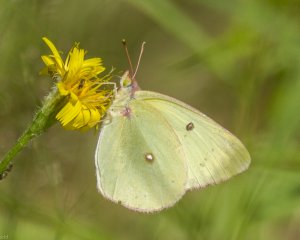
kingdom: Animalia
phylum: Arthropoda
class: Insecta
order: Lepidoptera
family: Pieridae
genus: Colias
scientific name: Colias interior
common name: Pink-edged Sulphur
